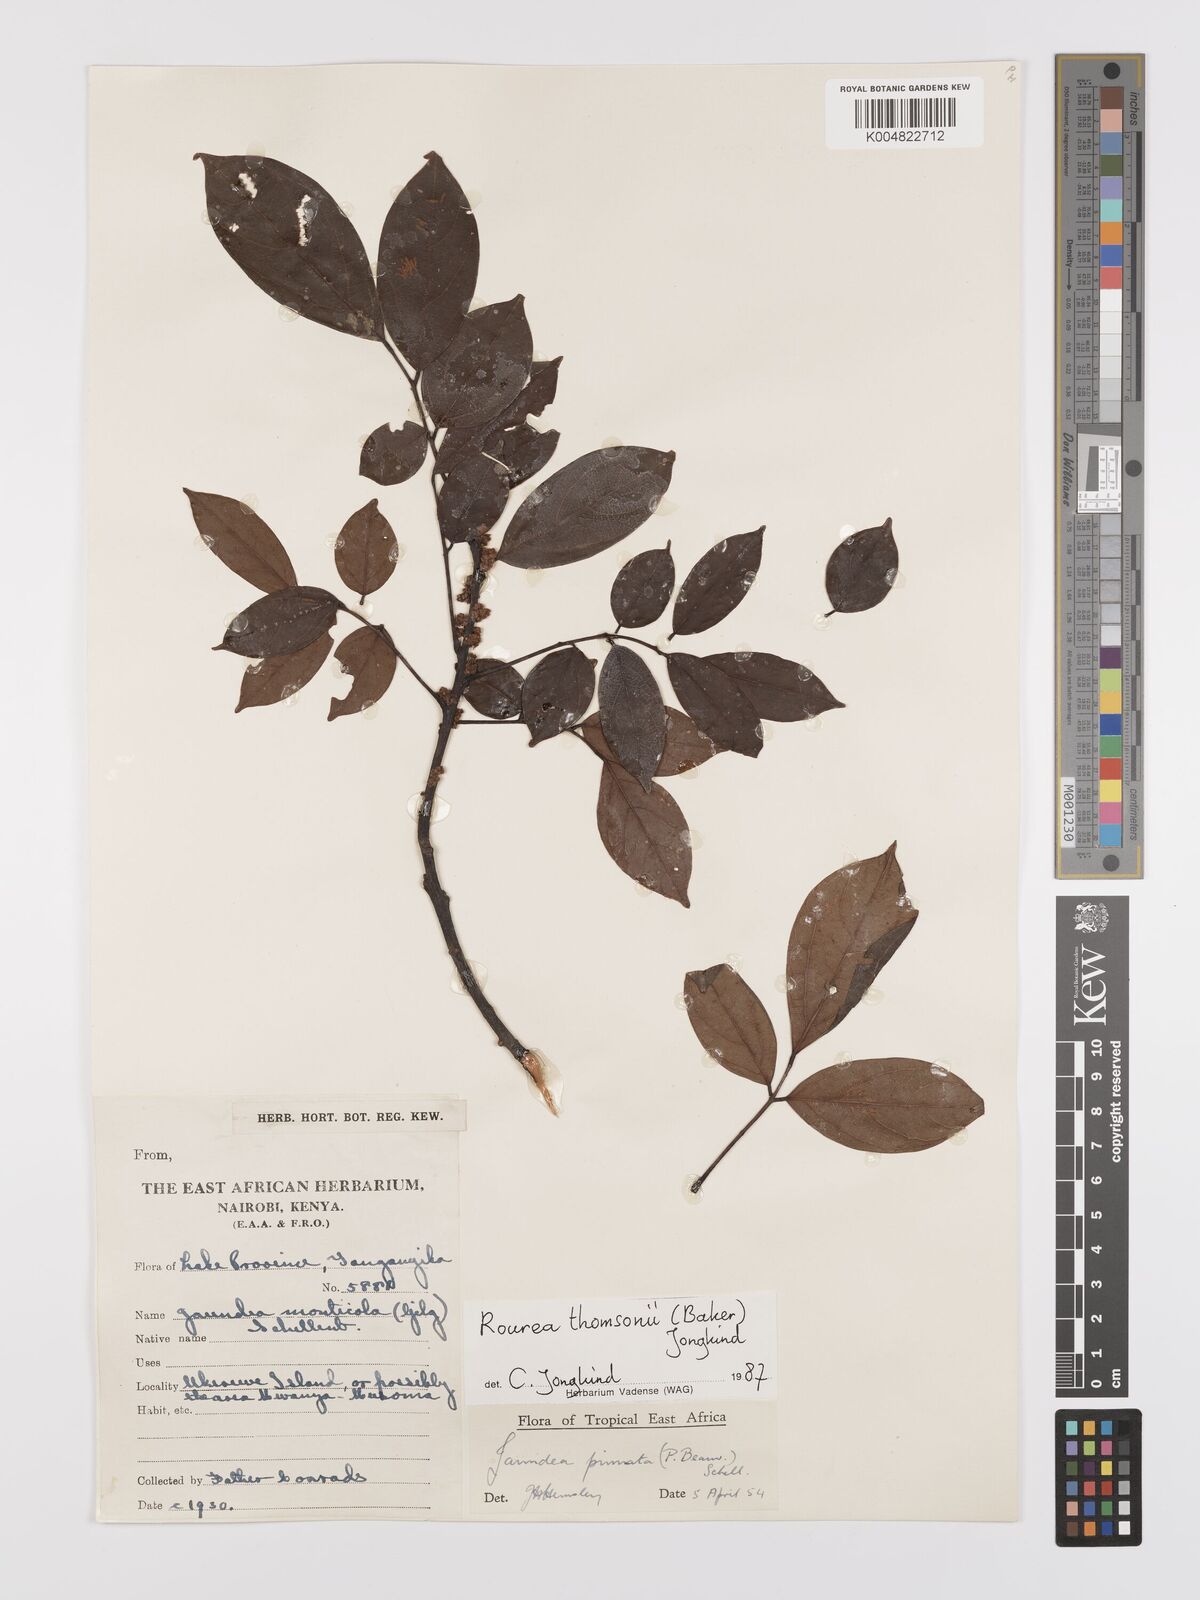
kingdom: Plantae
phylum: Tracheophyta
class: Magnoliopsida
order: Oxalidales
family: Connaraceae
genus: Rourea
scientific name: Rourea pinnata
